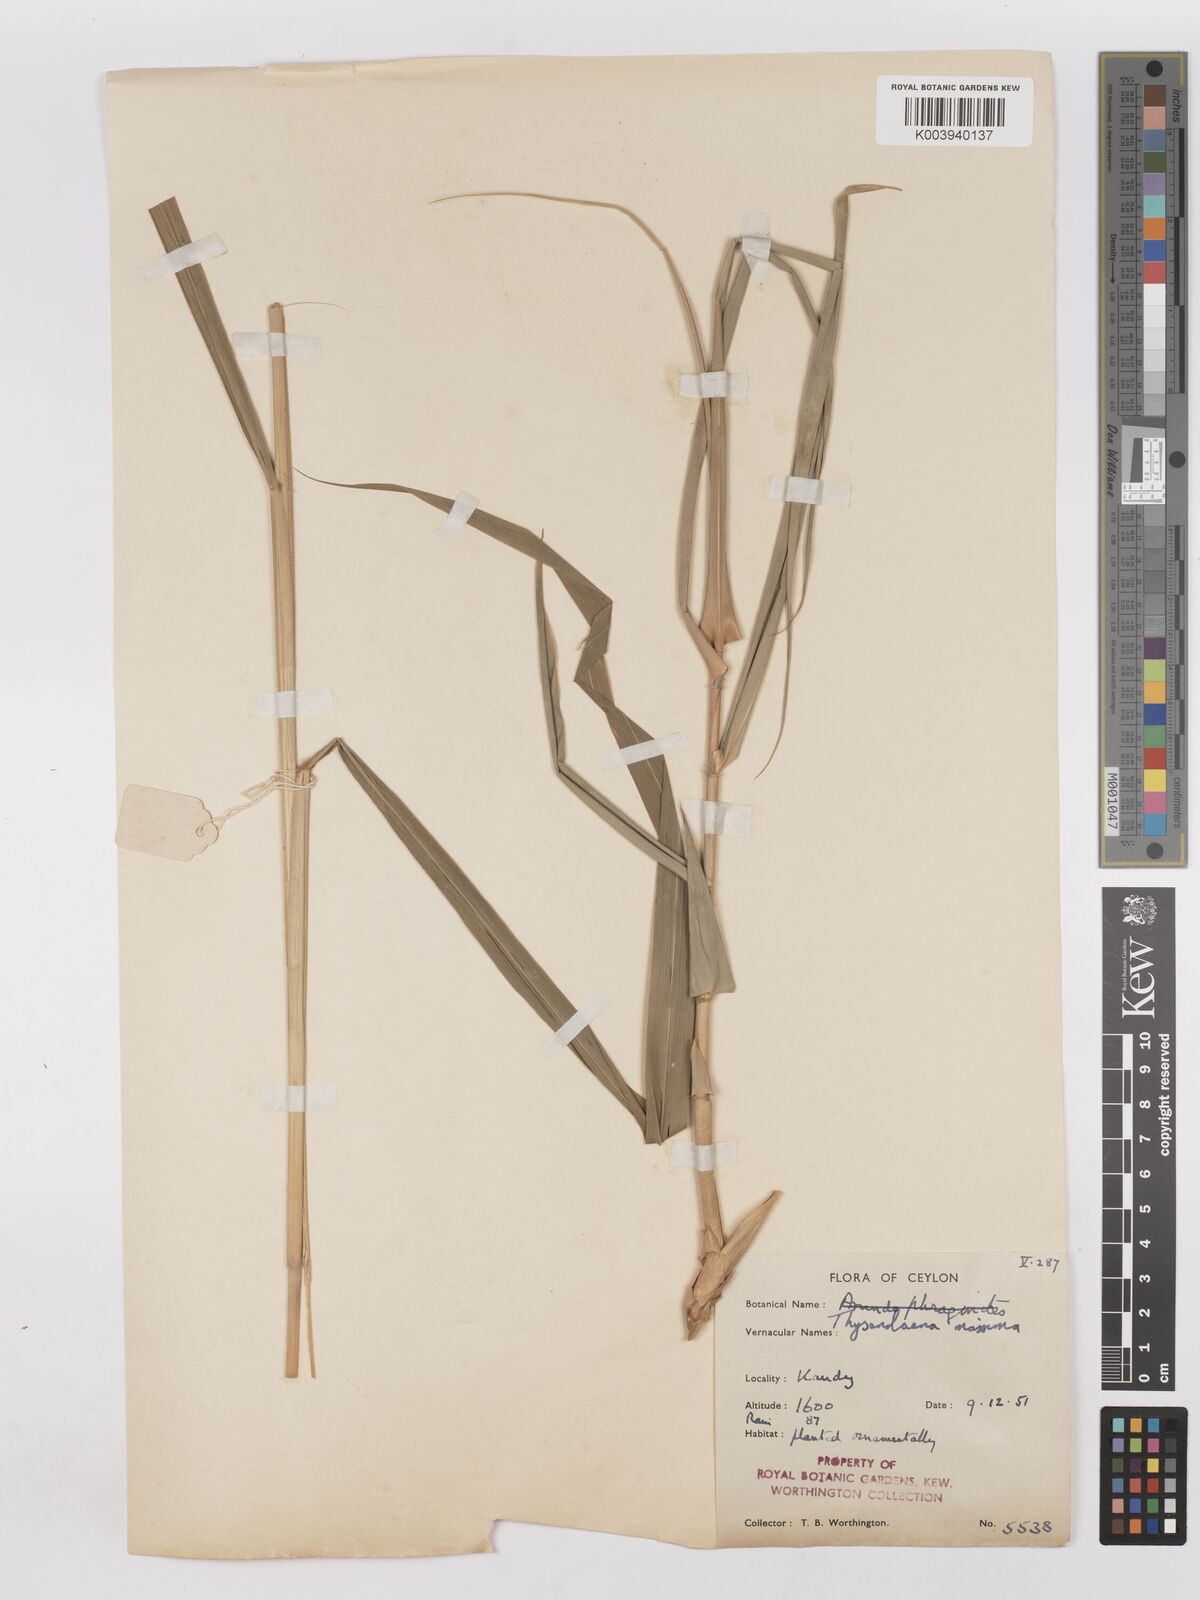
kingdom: Plantae
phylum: Tracheophyta
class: Liliopsida
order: Poales
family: Poaceae
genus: Thysanolaena
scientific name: Thysanolaena latifolia
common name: Tiger grass
